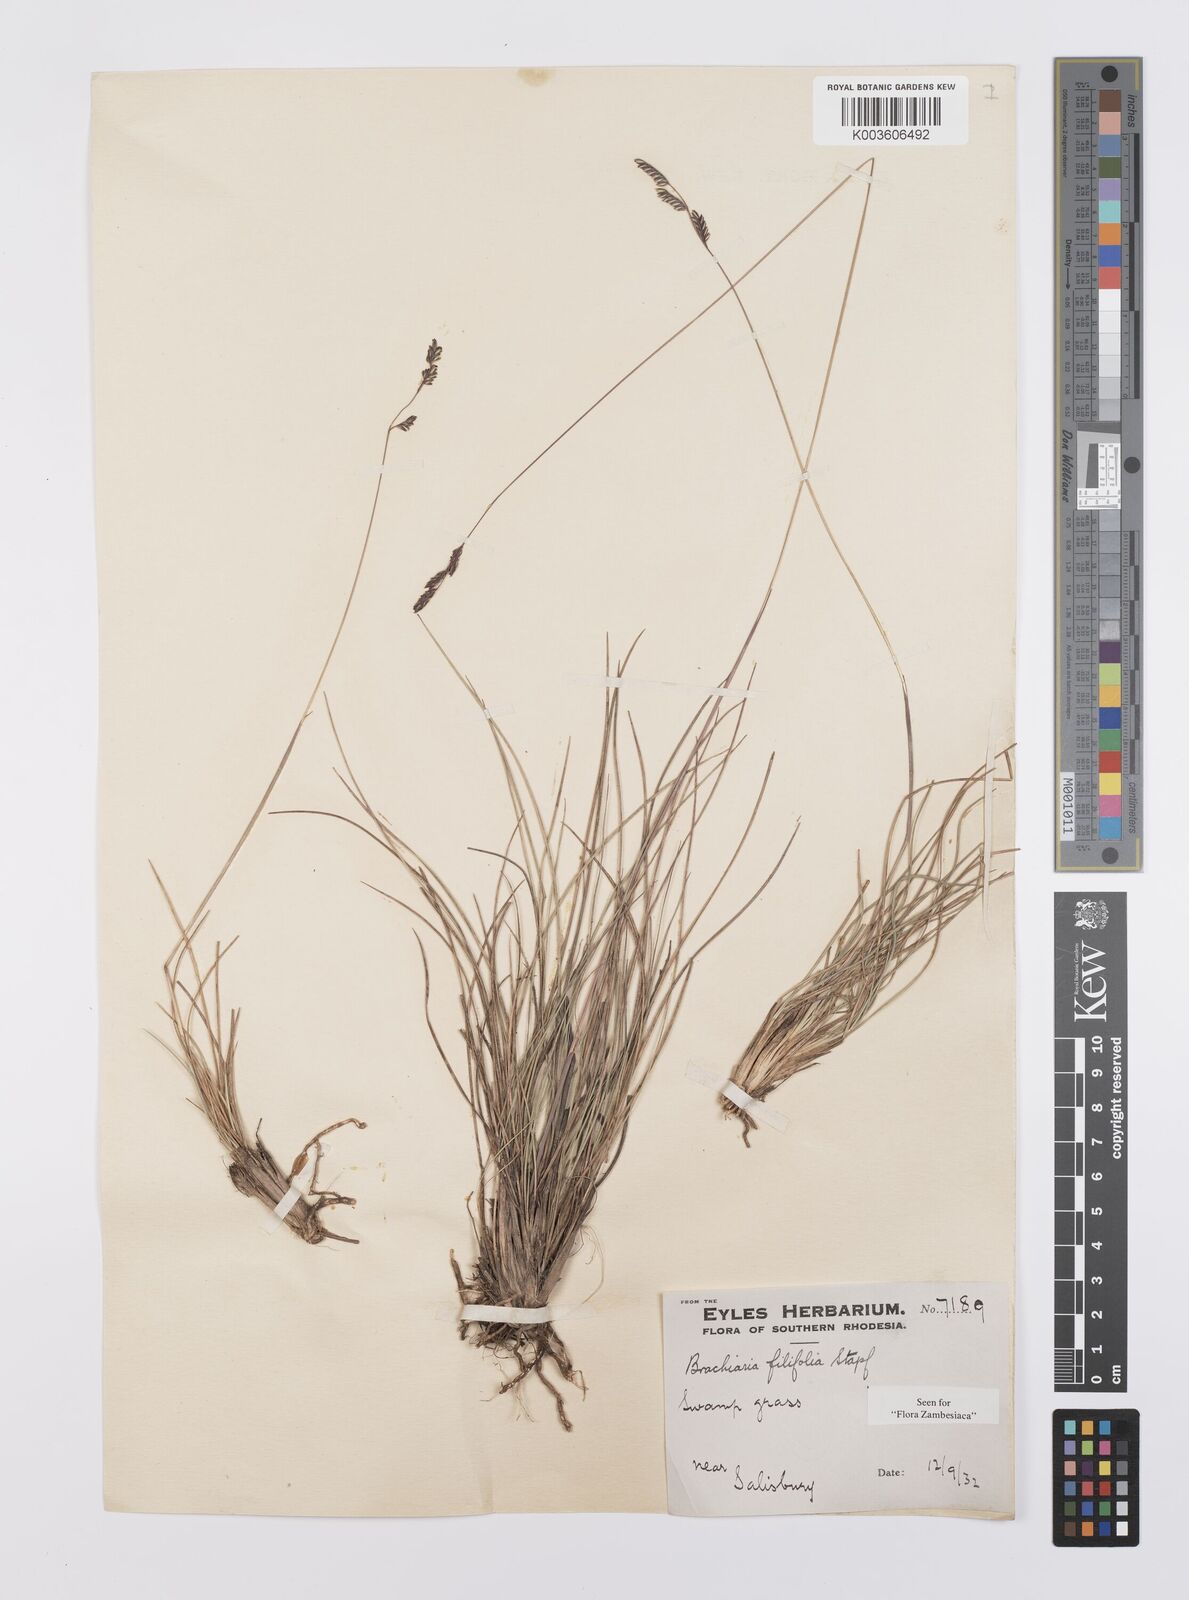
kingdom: Plantae
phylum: Tracheophyta
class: Liliopsida
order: Poales
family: Poaceae
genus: Urochloa
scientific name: Urochloa subulifolia
